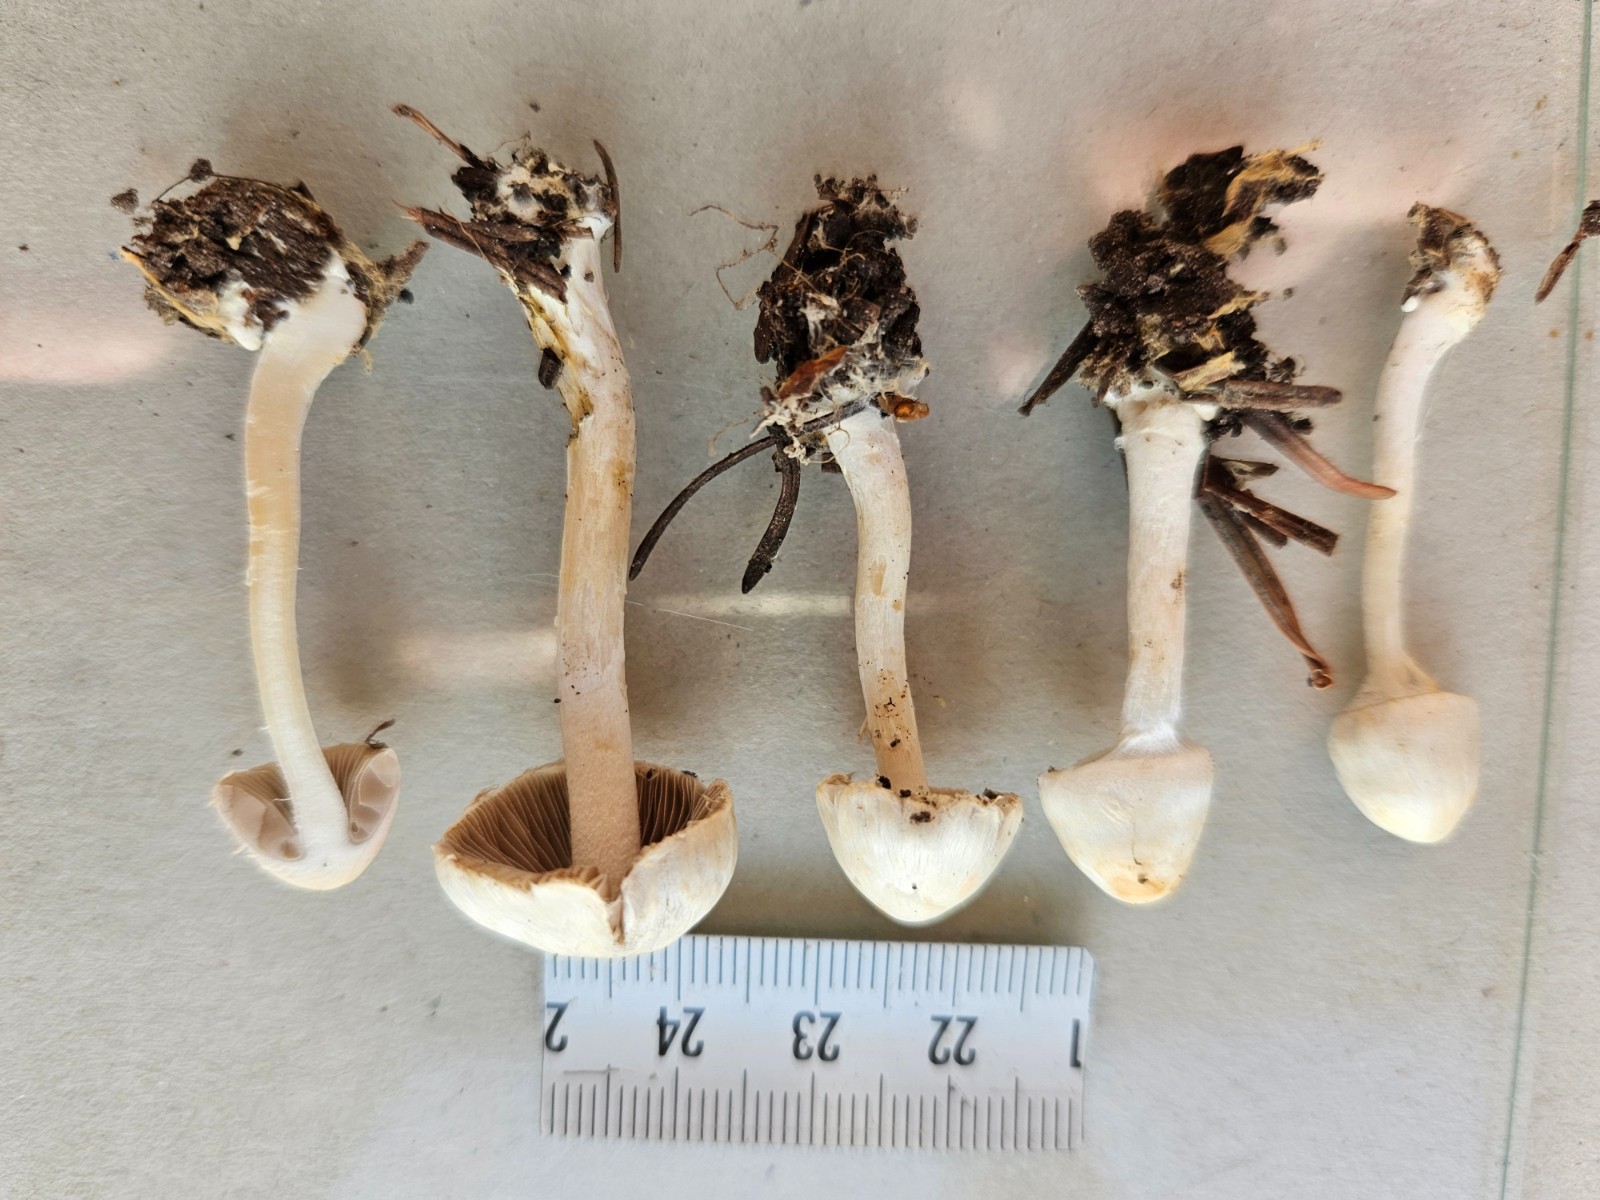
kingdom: Fungi
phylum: Basidiomycota
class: Agaricomycetes
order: Agaricales
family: Inocybaceae
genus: Inocybe
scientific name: Inocybe
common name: trævlhat
